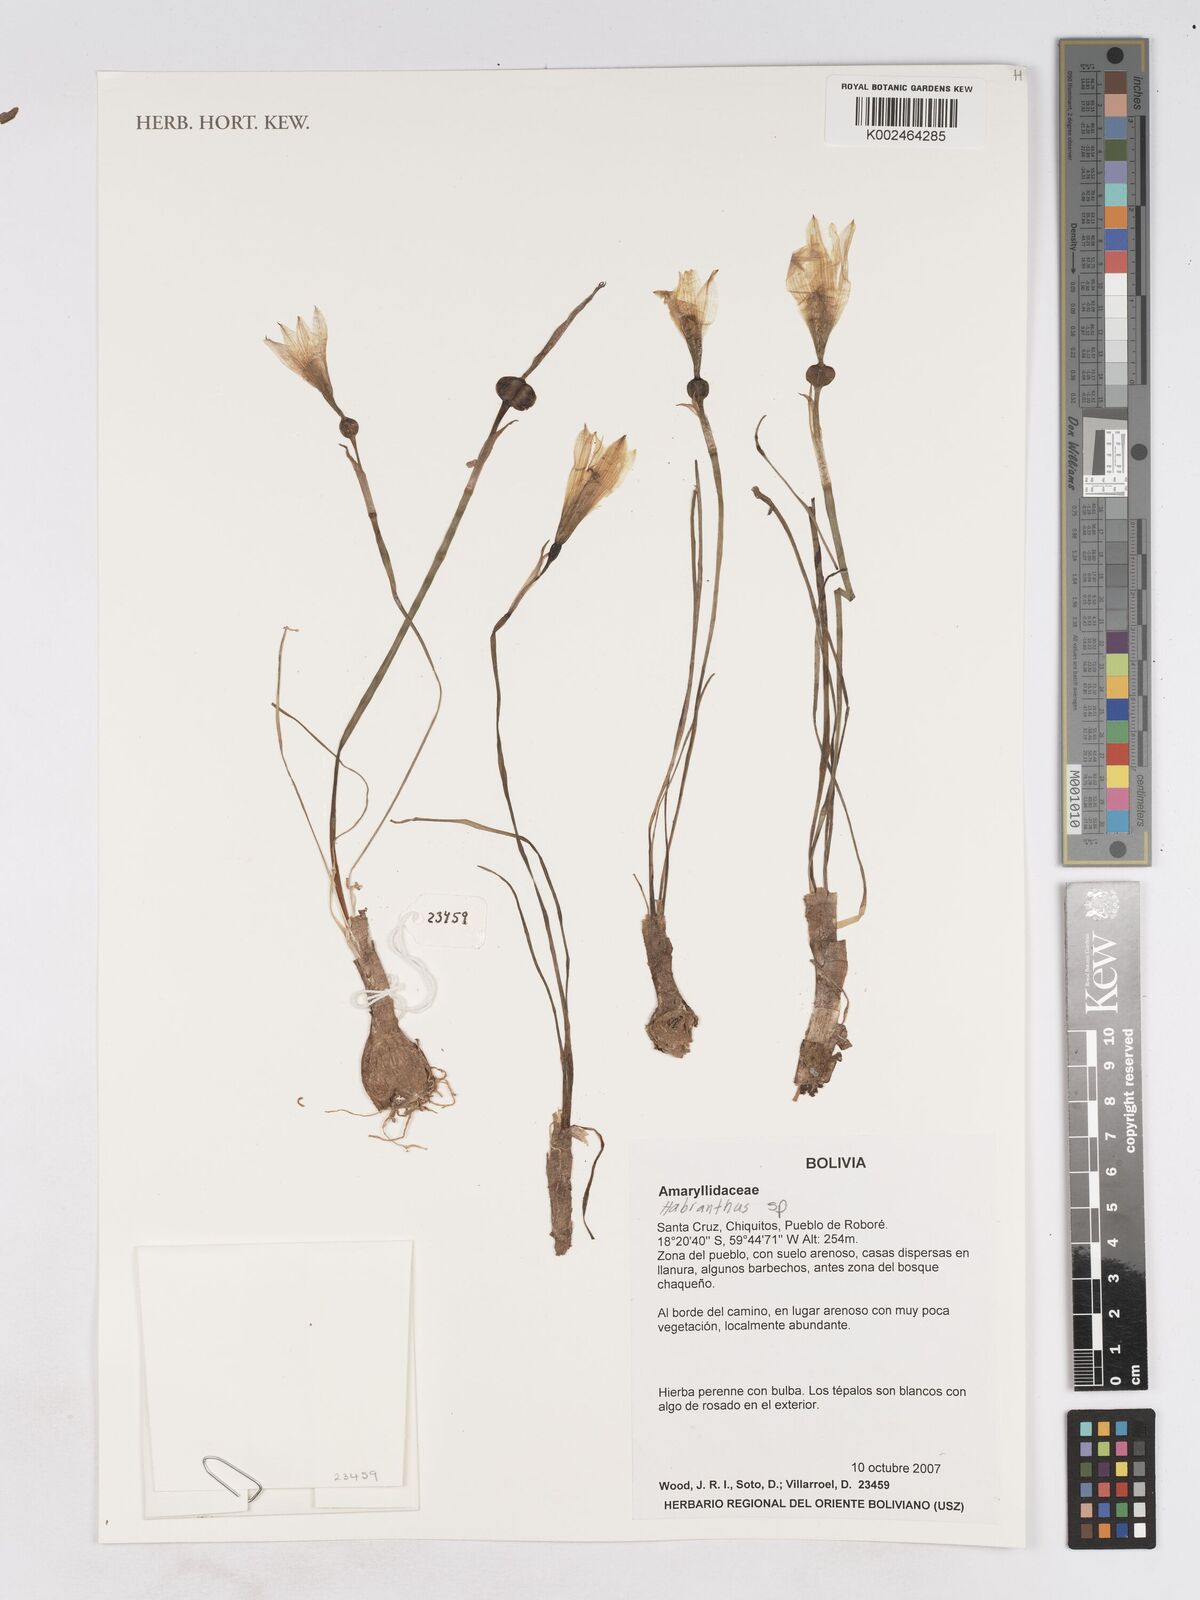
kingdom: Plantae
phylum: Tracheophyta
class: Liliopsida
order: Asparagales
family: Amaryllidaceae
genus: Zephyranthes
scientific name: Zephyranthes
